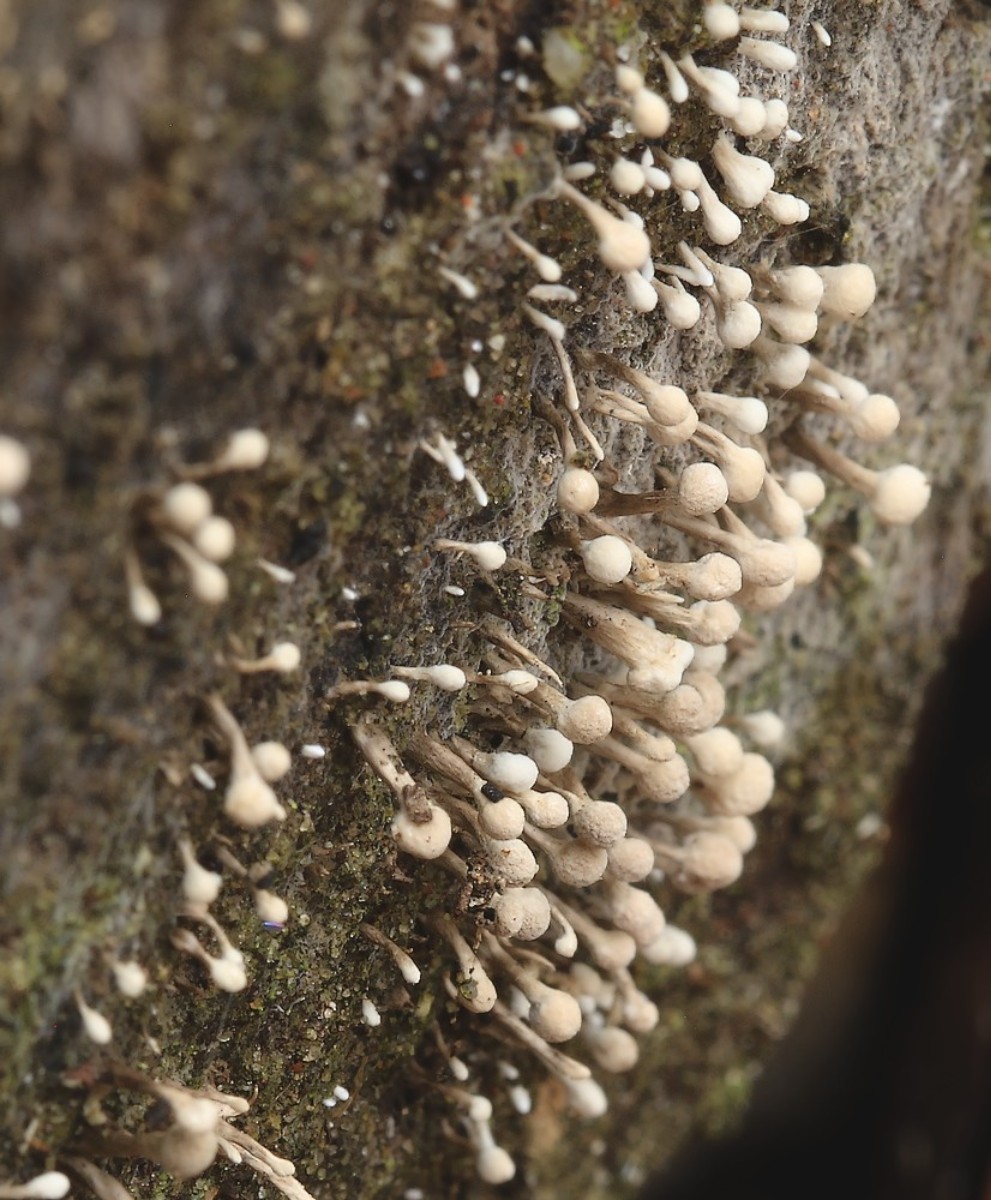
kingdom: Fungi
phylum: Basidiomycota
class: Atractiellomycetes
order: Atractiellales
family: Phleogenaceae
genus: Phleogena
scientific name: Phleogena faginea
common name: pudderkølle
